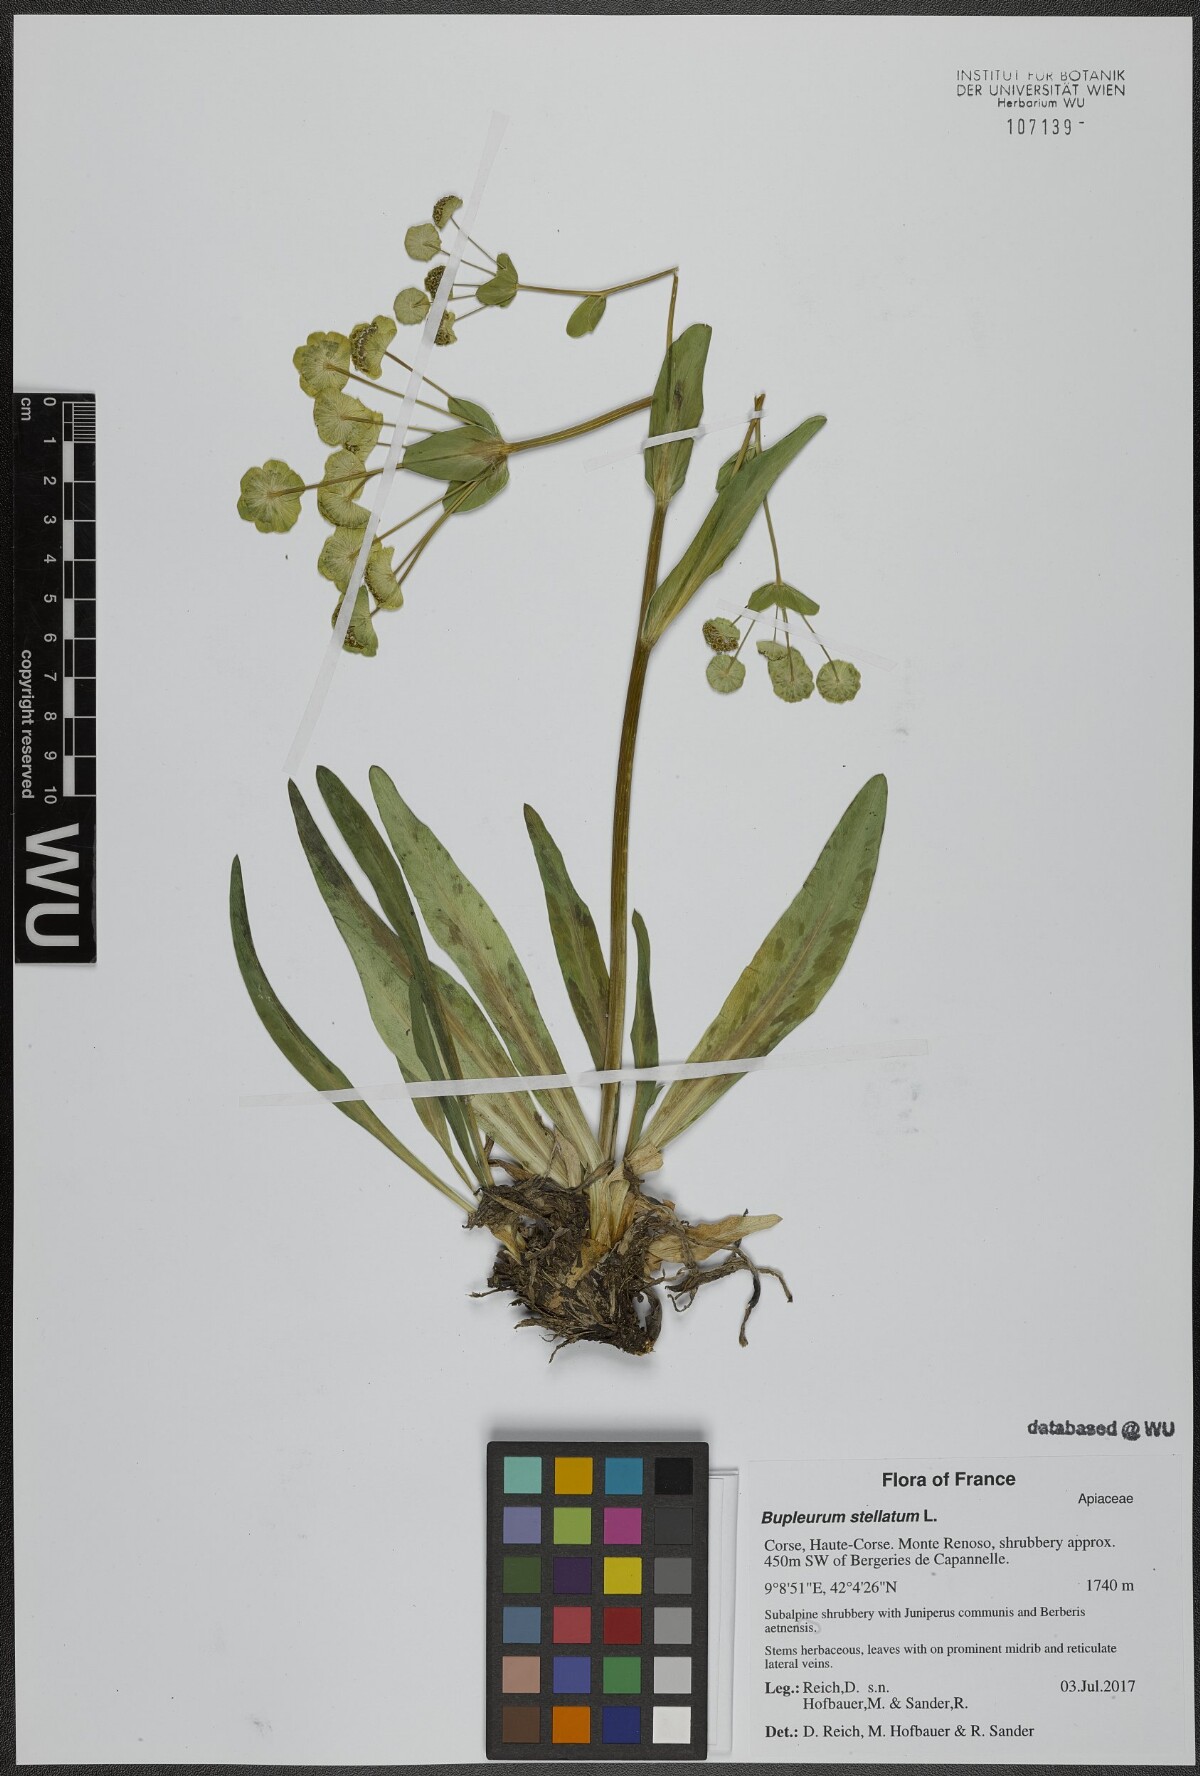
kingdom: Plantae
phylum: Tracheophyta
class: Magnoliopsida
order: Apiales
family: Apiaceae
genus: Bupleurum
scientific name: Bupleurum stellatum
